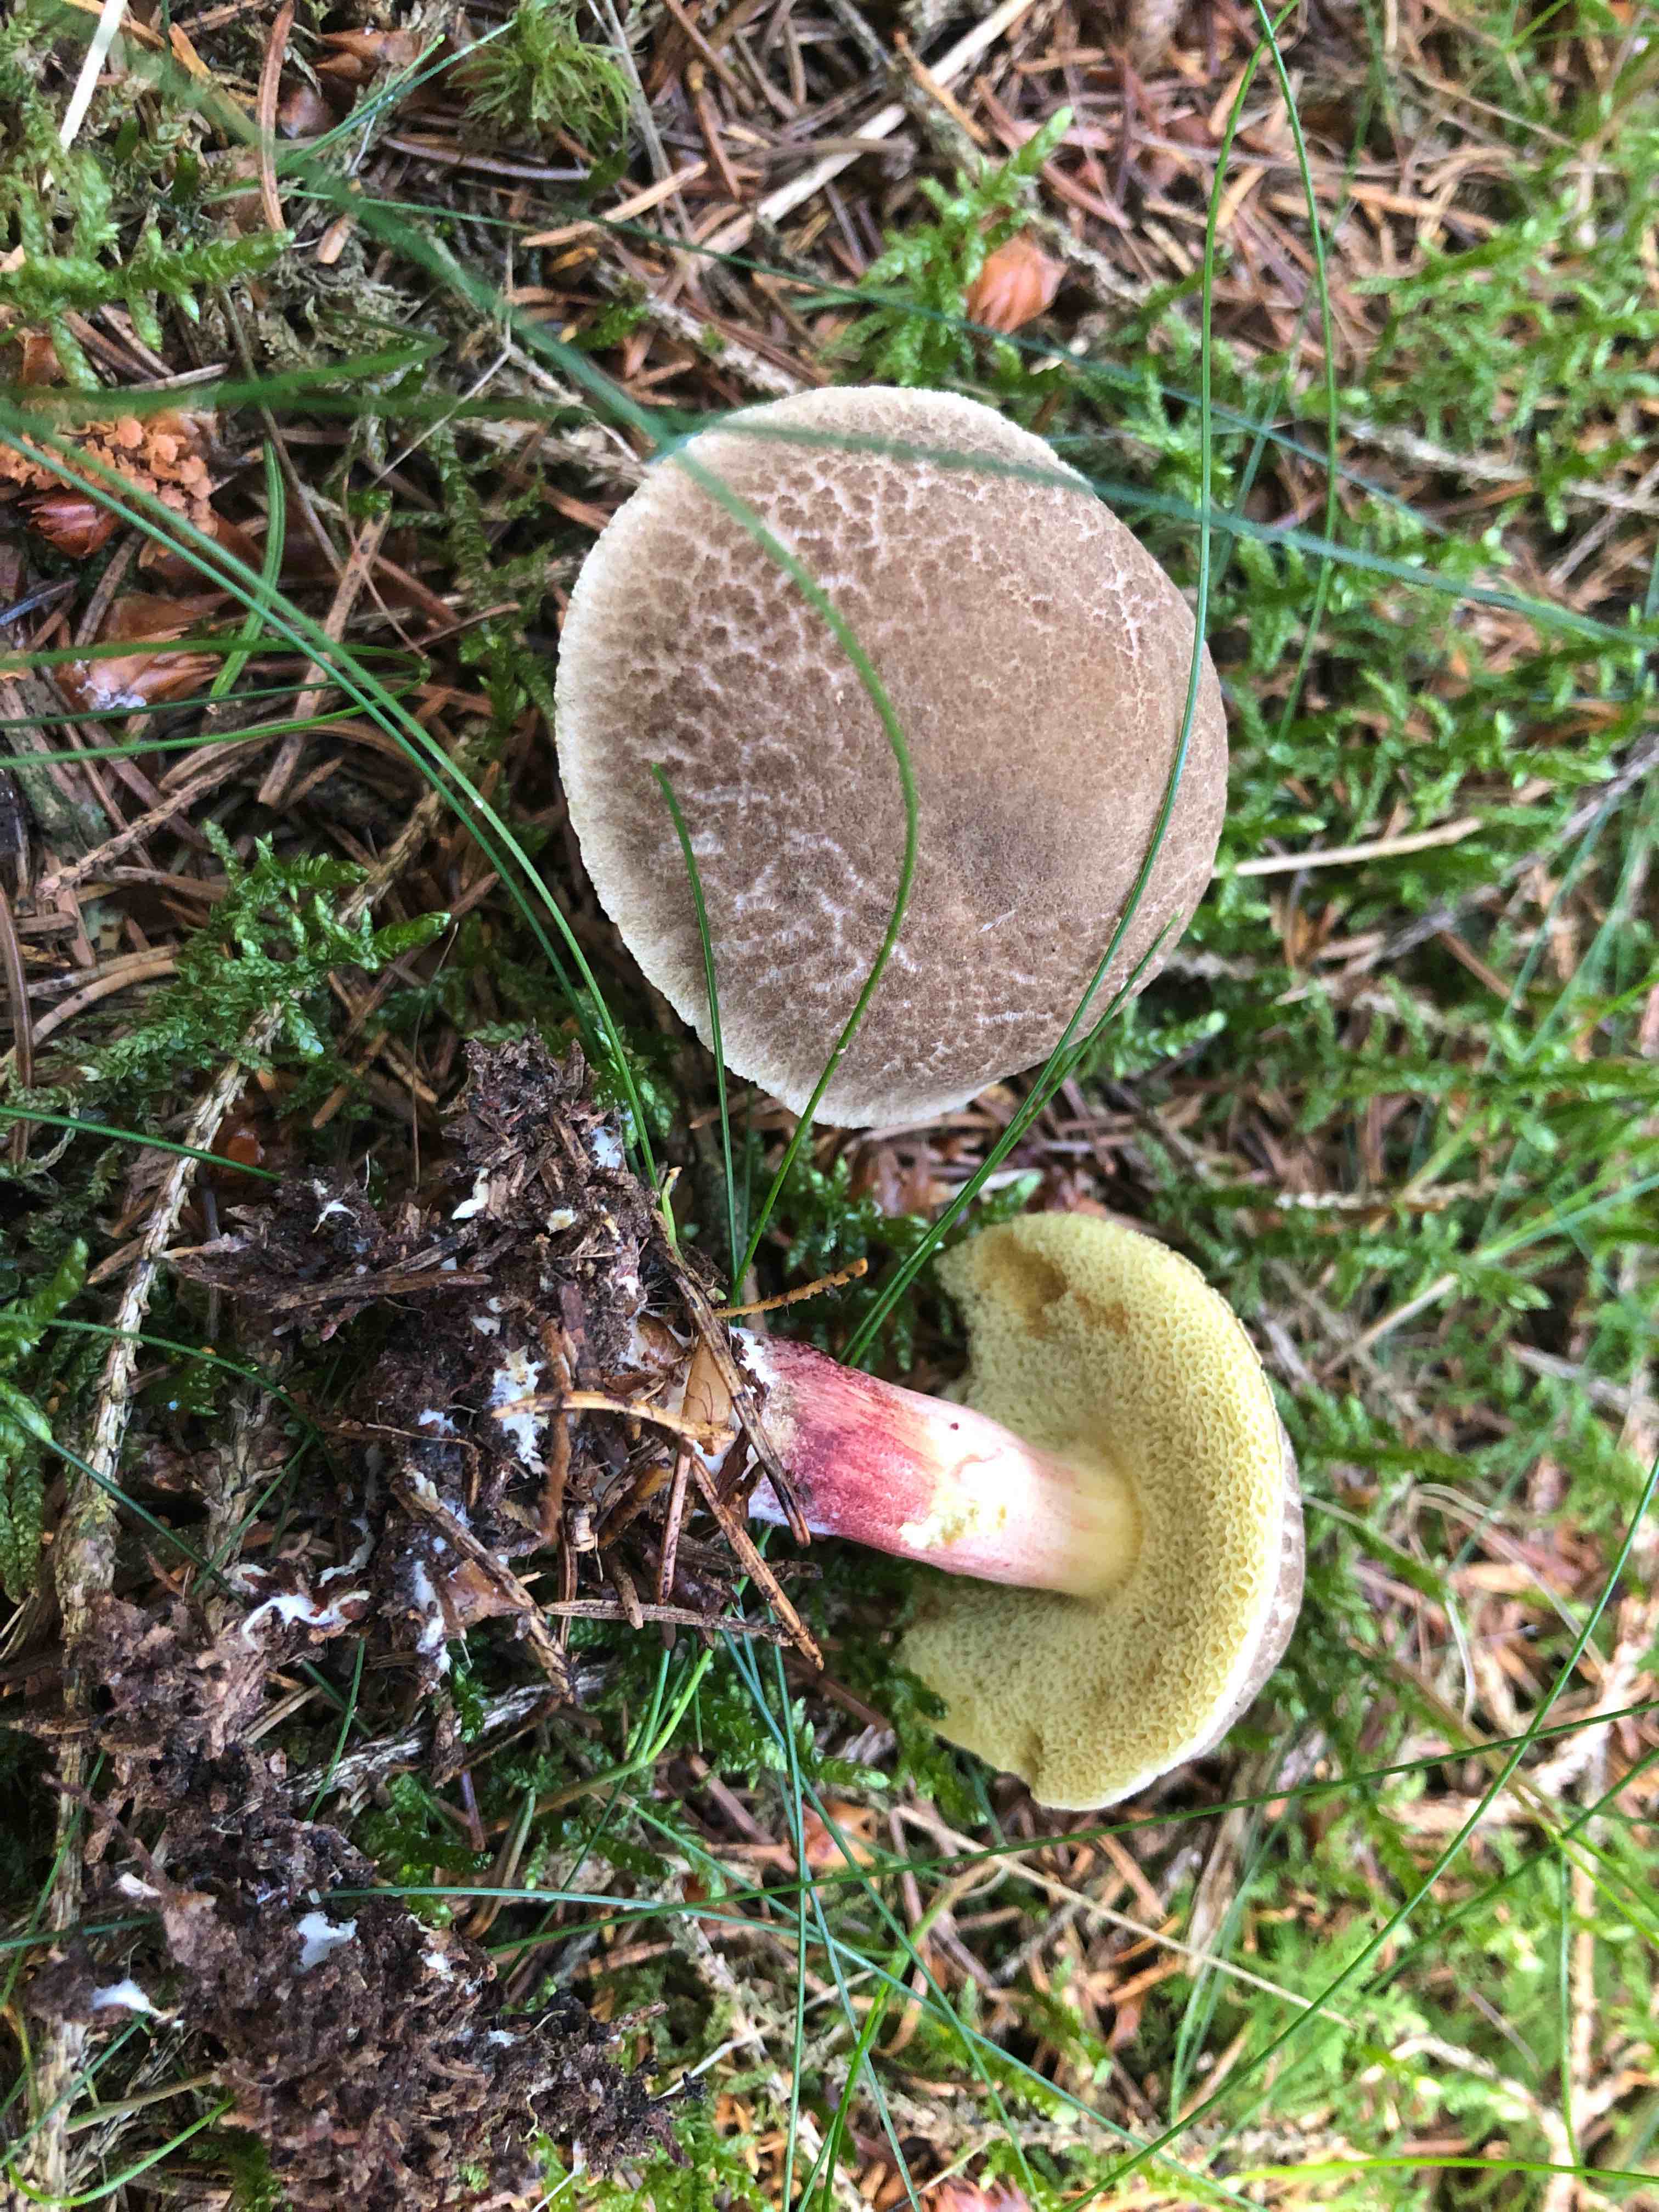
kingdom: Fungi
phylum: Basidiomycota
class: Agaricomycetes
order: Boletales
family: Boletaceae
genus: Xerocomellus
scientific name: Xerocomellus chrysenteron
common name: rødsprukken rørhat
